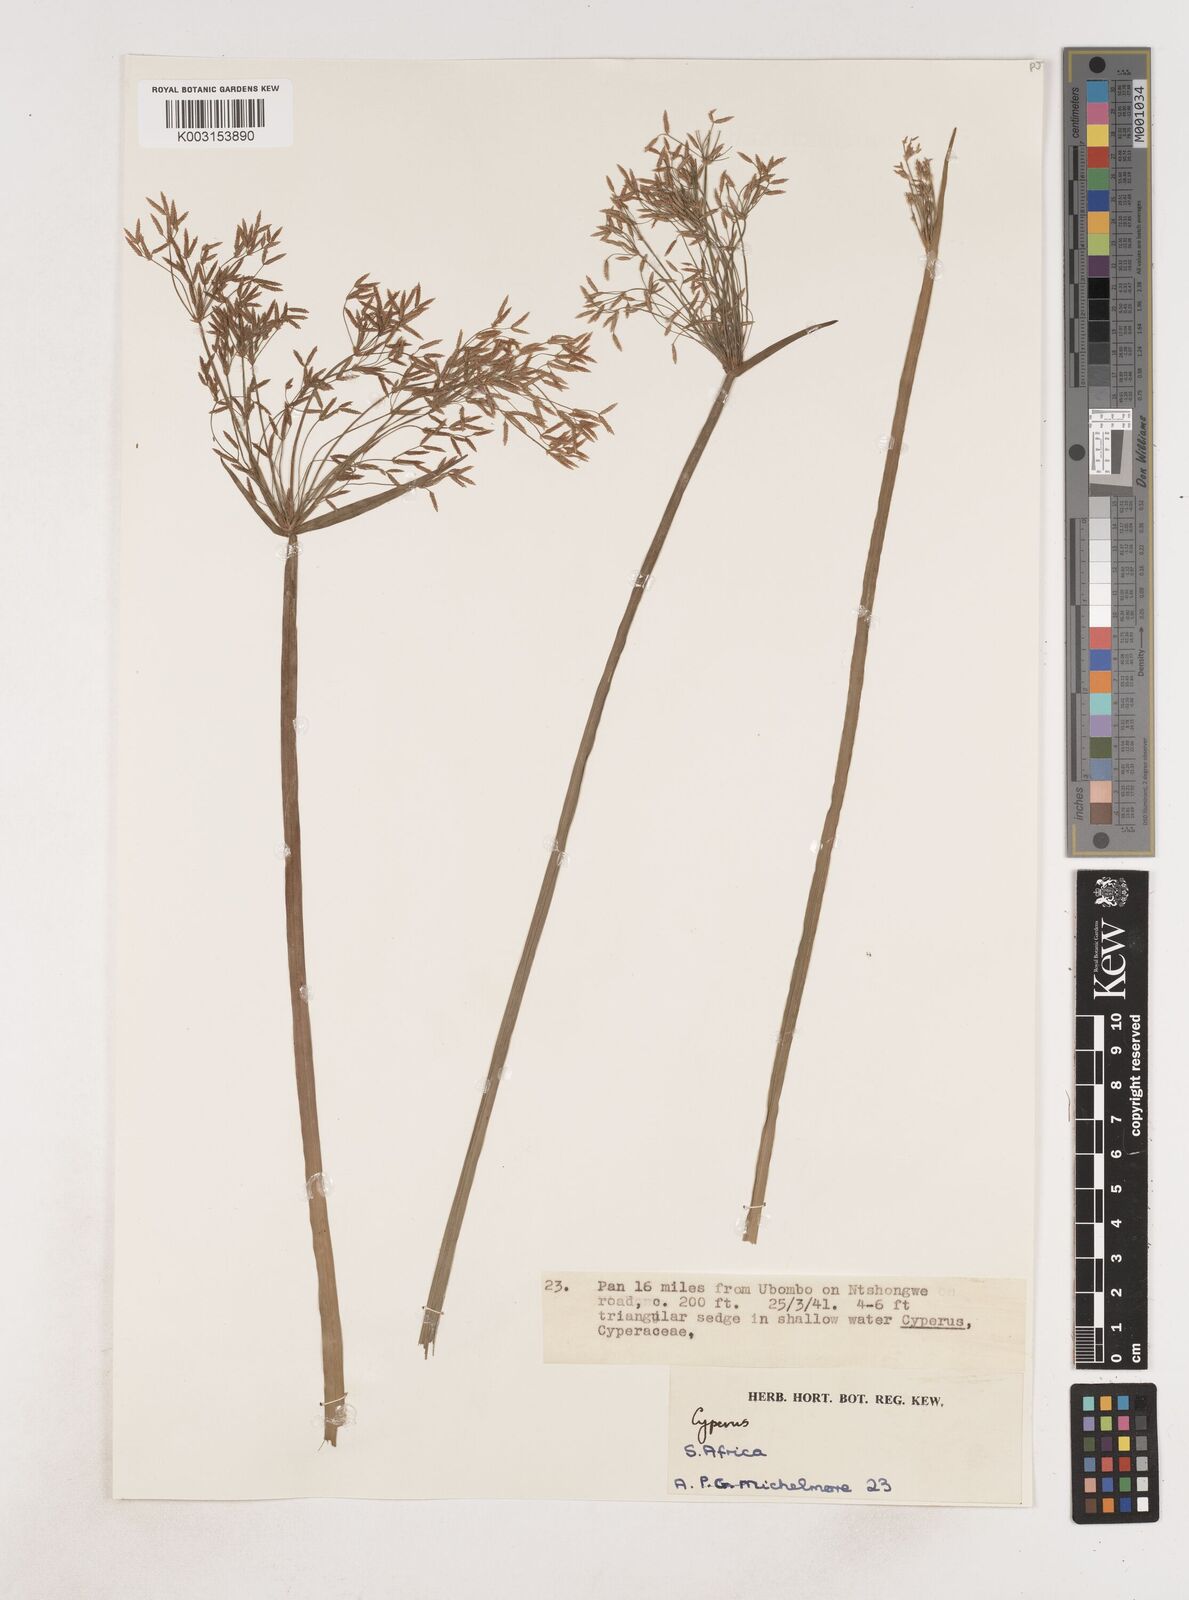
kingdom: Plantae
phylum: Tracheophyta
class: Liliopsida
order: Poales
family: Cyperaceae
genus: Cyperus
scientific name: Cyperus
